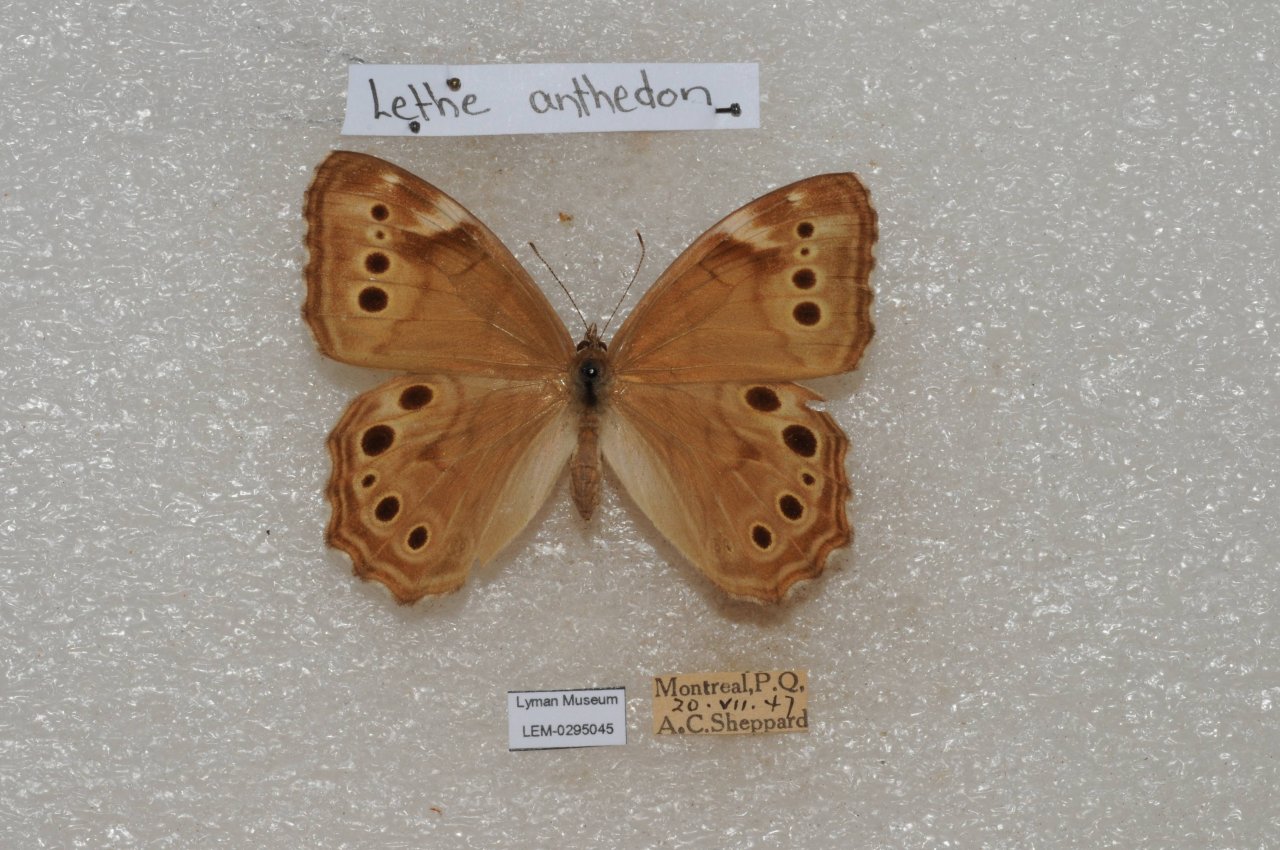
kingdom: Animalia
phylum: Arthropoda
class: Insecta
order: Lepidoptera
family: Nymphalidae
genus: Lethe
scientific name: Lethe anthedon
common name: Northern Pearly-Eye
